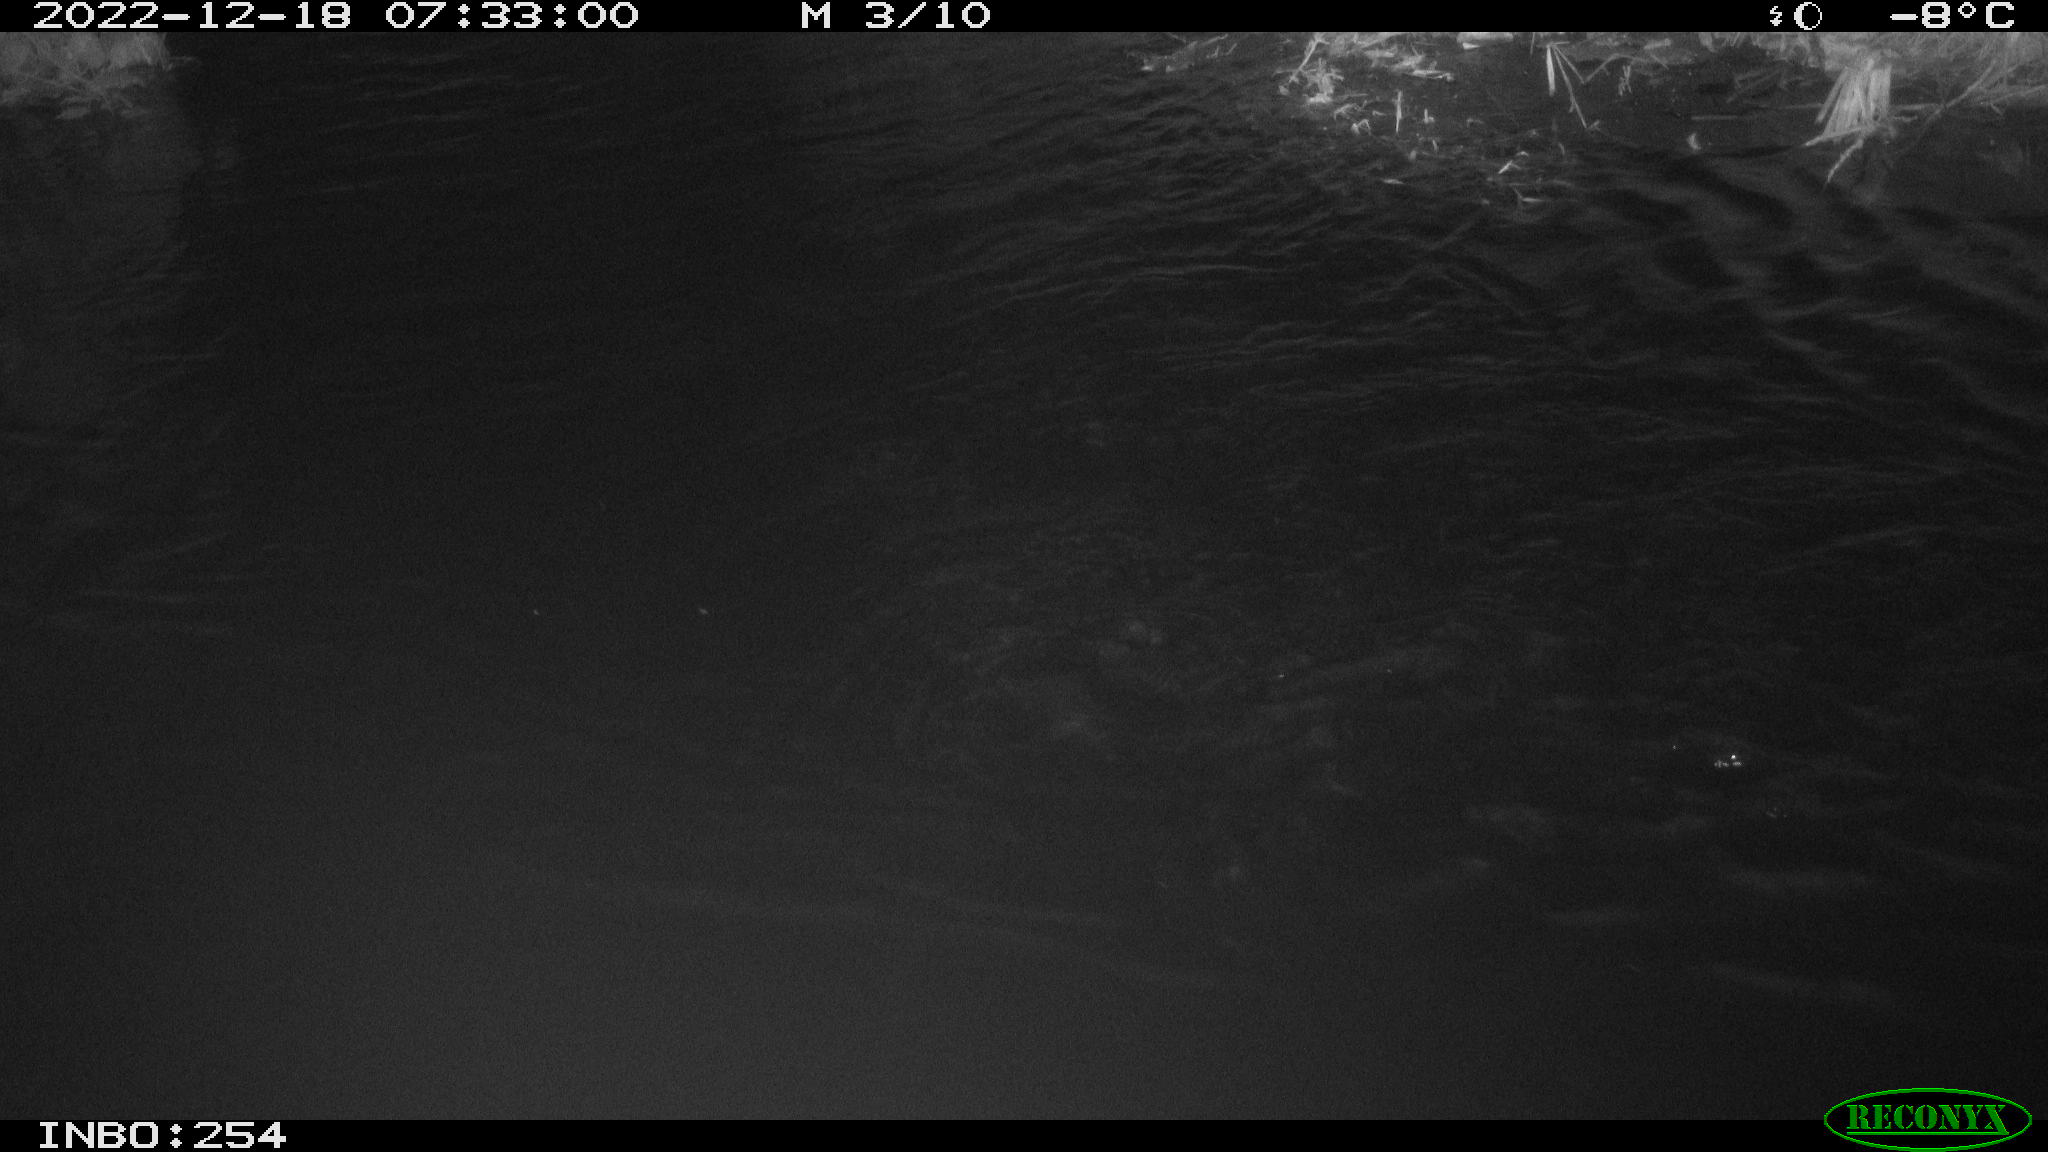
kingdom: Animalia
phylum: Chordata
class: Aves
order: Anseriformes
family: Anatidae
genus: Anas
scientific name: Anas
